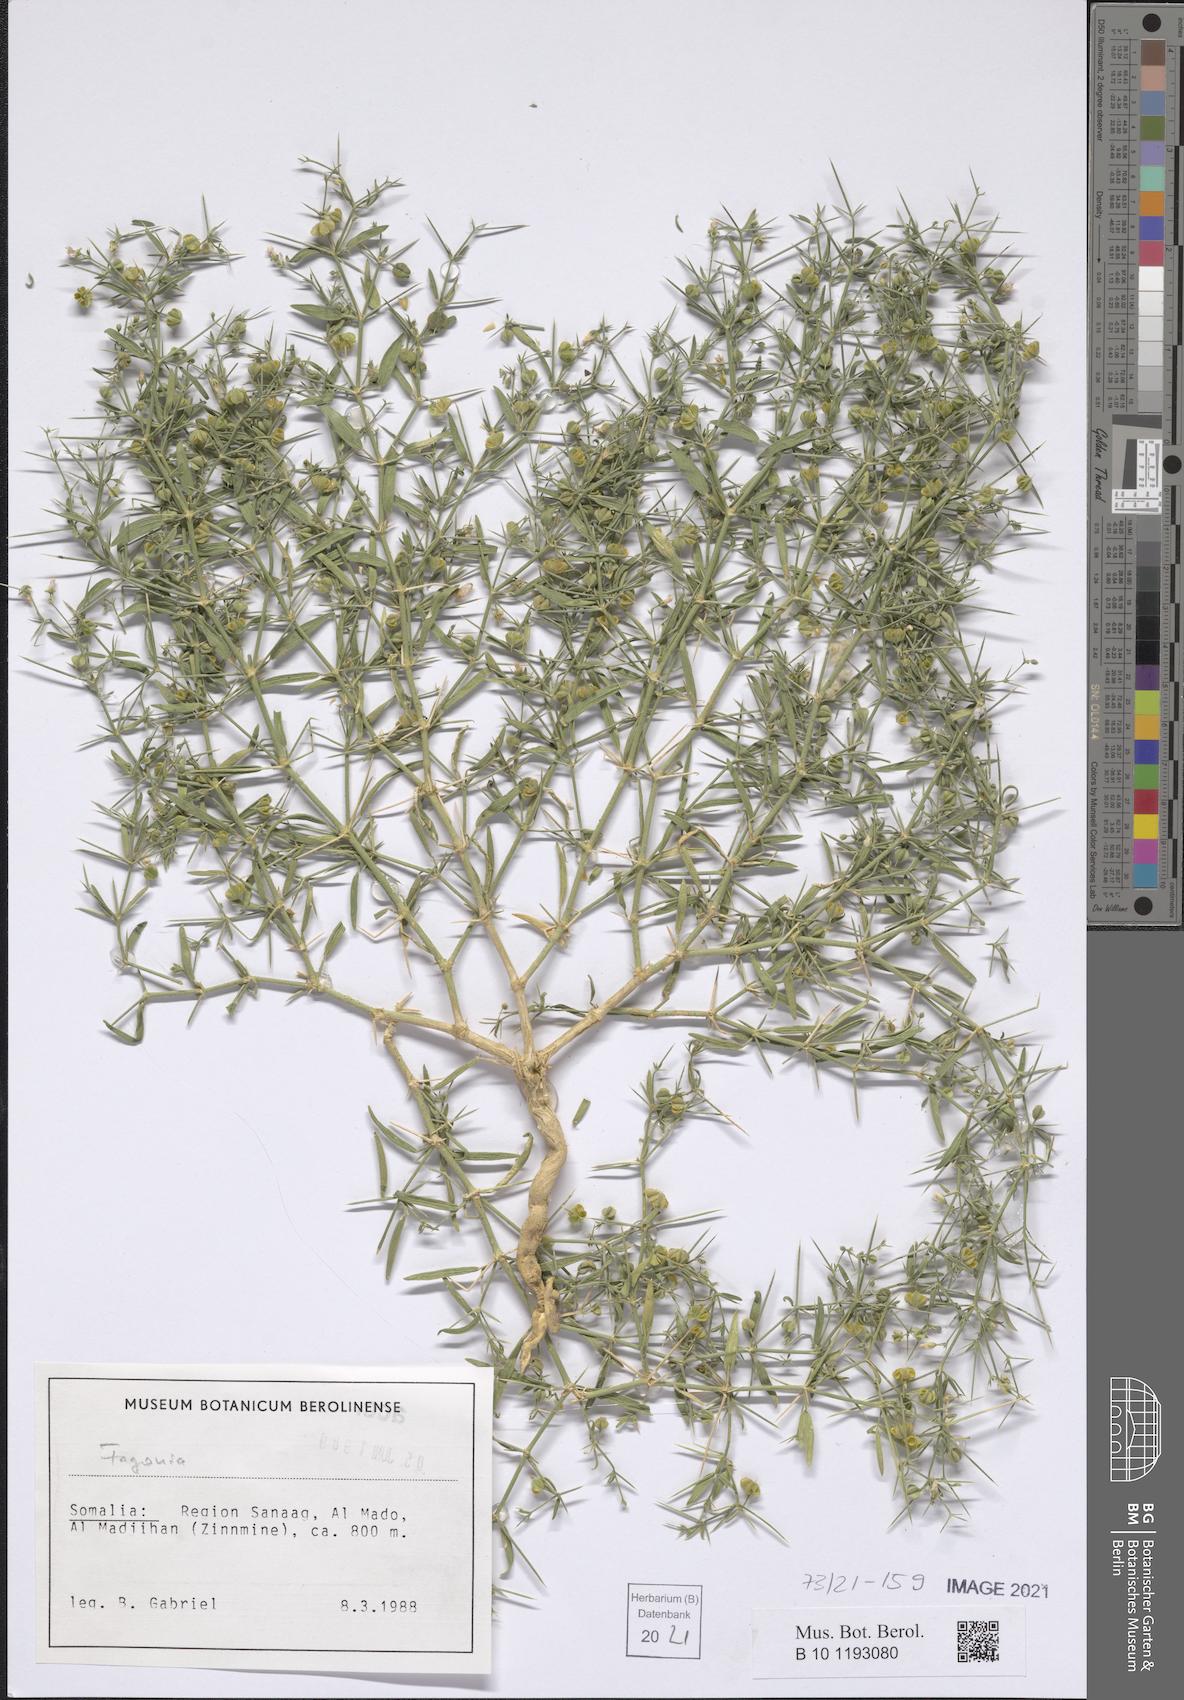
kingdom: Plantae
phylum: Tracheophyta
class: Magnoliopsida
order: Zygophyllales
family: Zygophyllaceae
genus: Fagonia
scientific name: Fagonia
